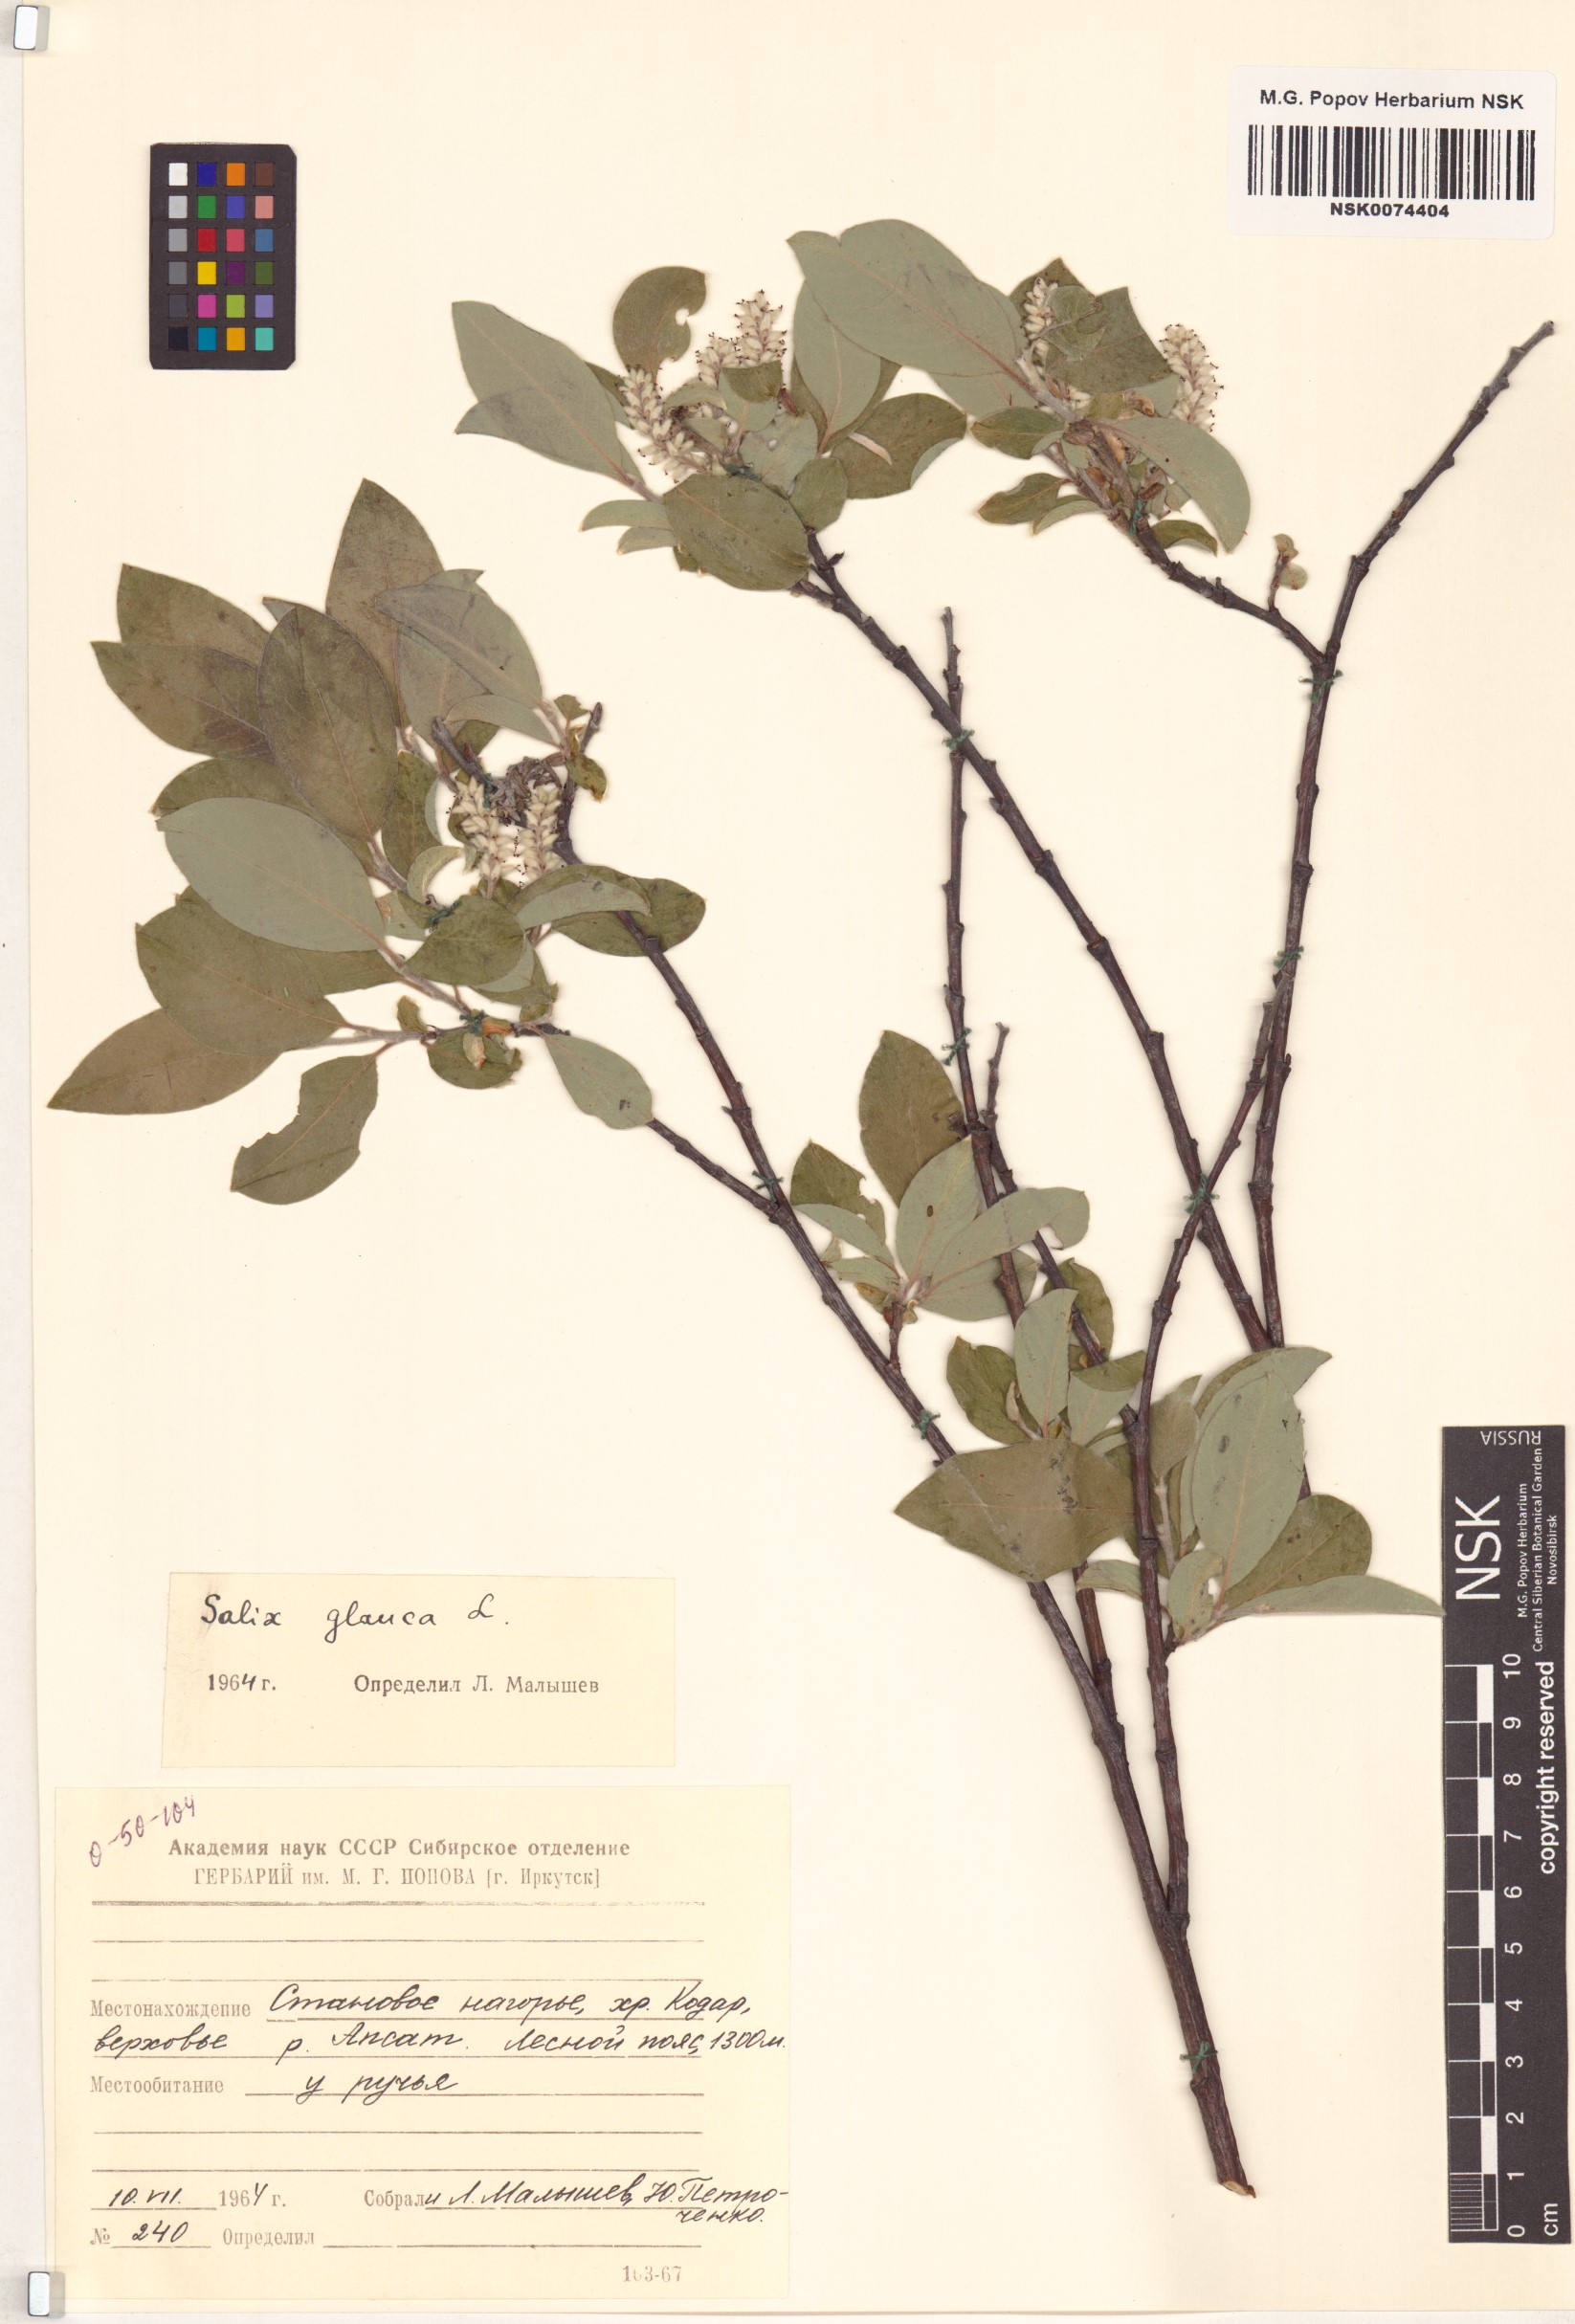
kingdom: Plantae
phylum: Tracheophyta
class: Magnoliopsida
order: Malpighiales
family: Salicaceae
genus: Salix
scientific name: Salix glauca
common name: Glaucous willow
